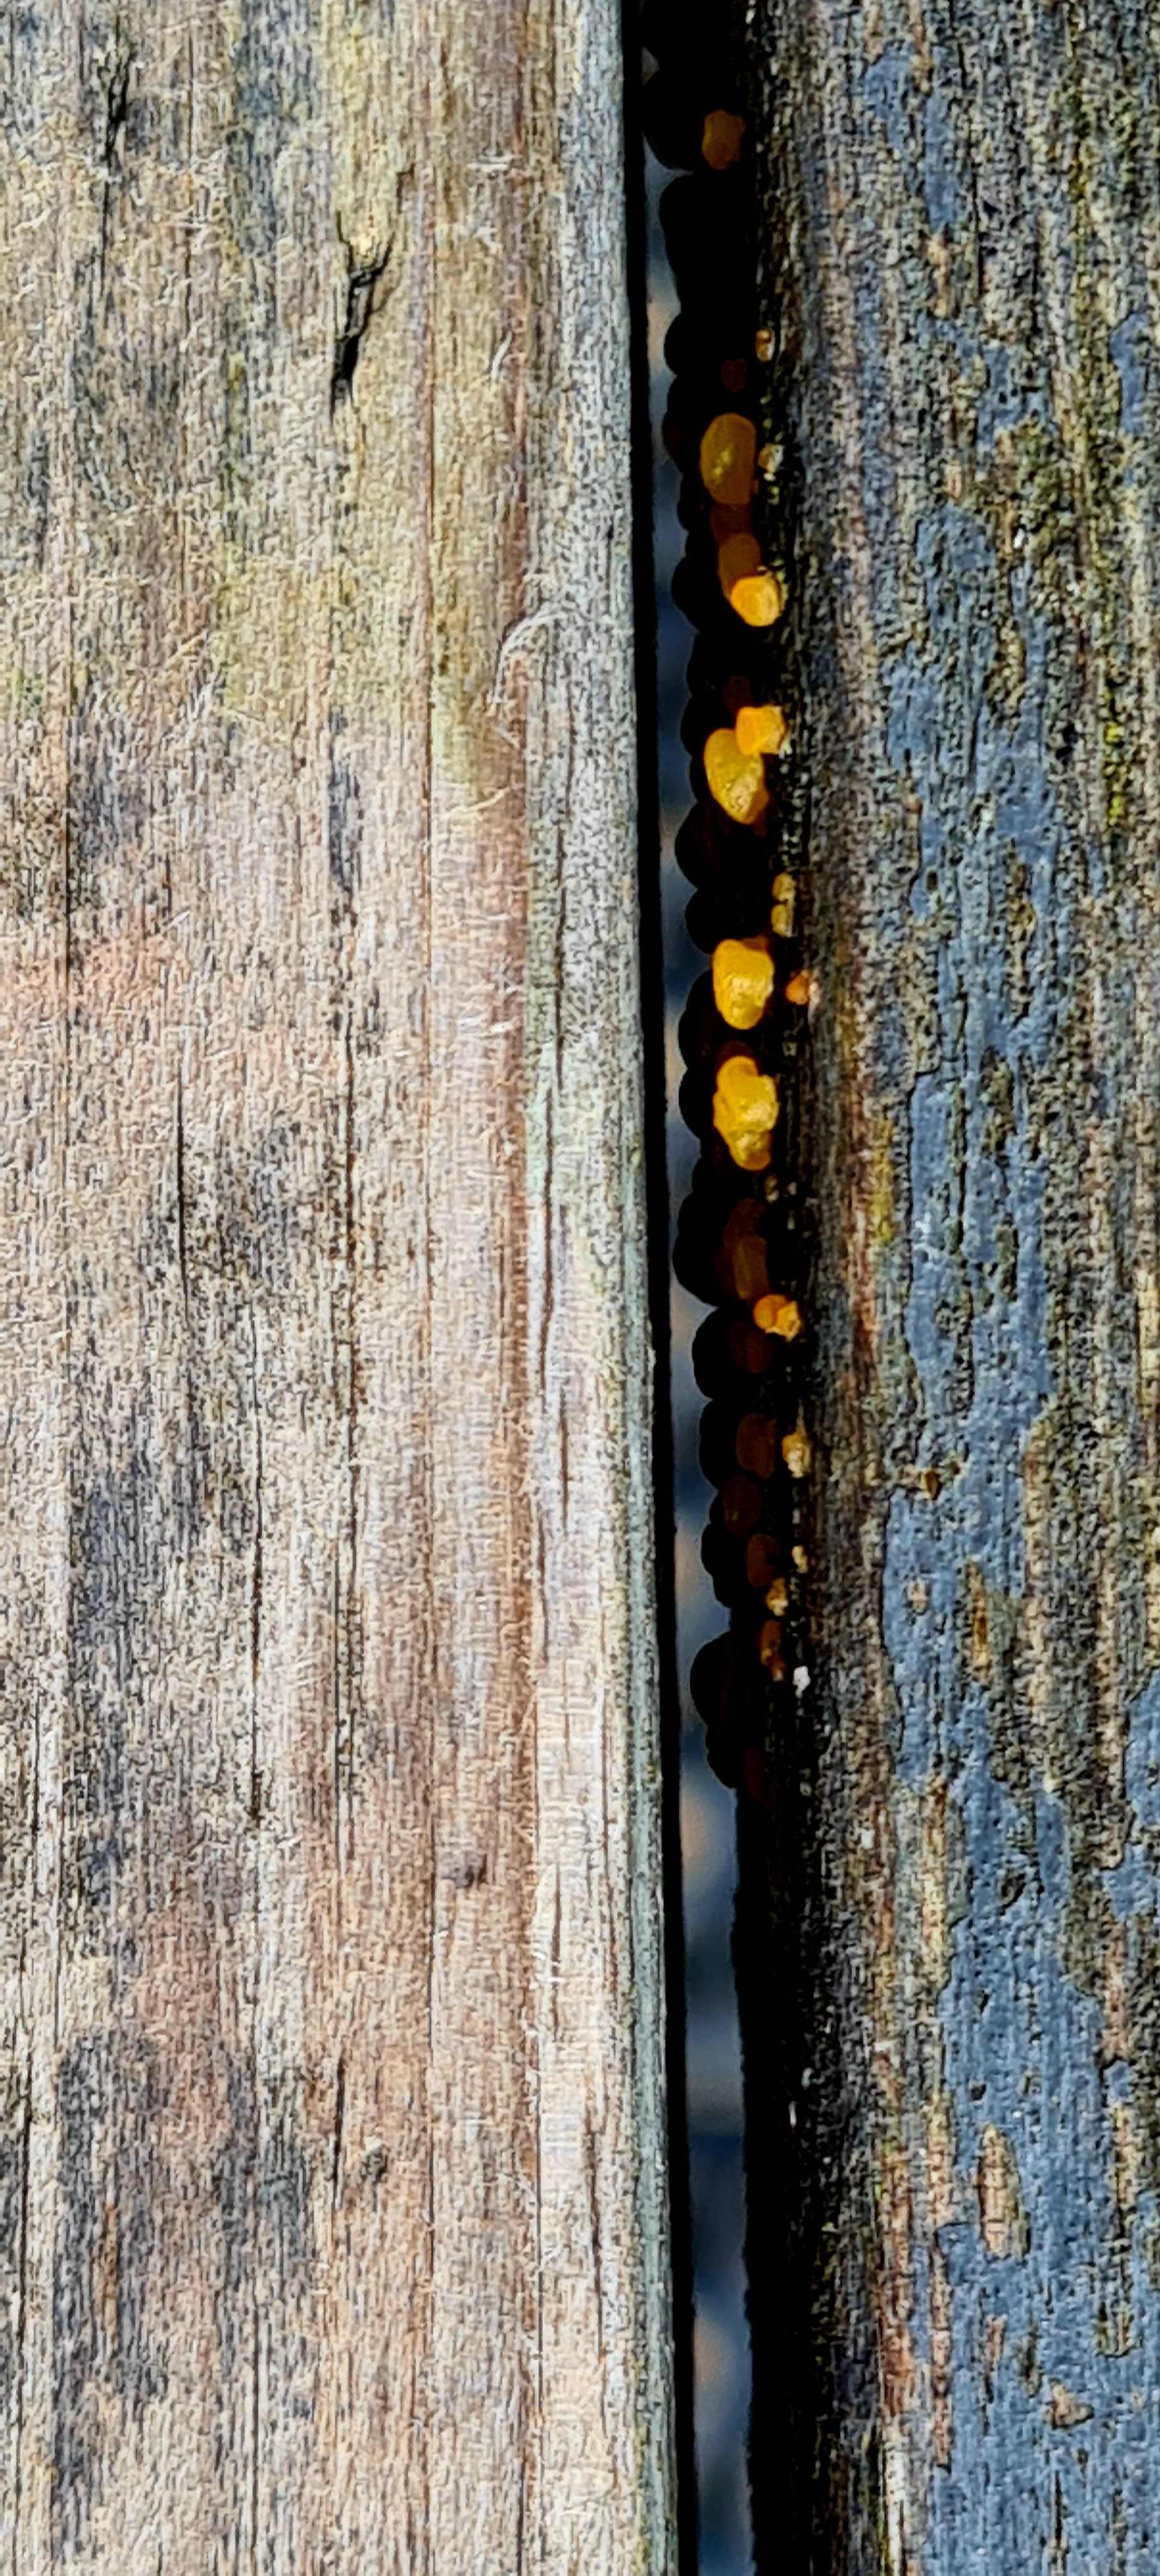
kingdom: Fungi
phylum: Basidiomycota
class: Dacrymycetes
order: Dacrymycetales
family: Dacrymycetaceae
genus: Dacrymyces
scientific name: Dacrymyces
